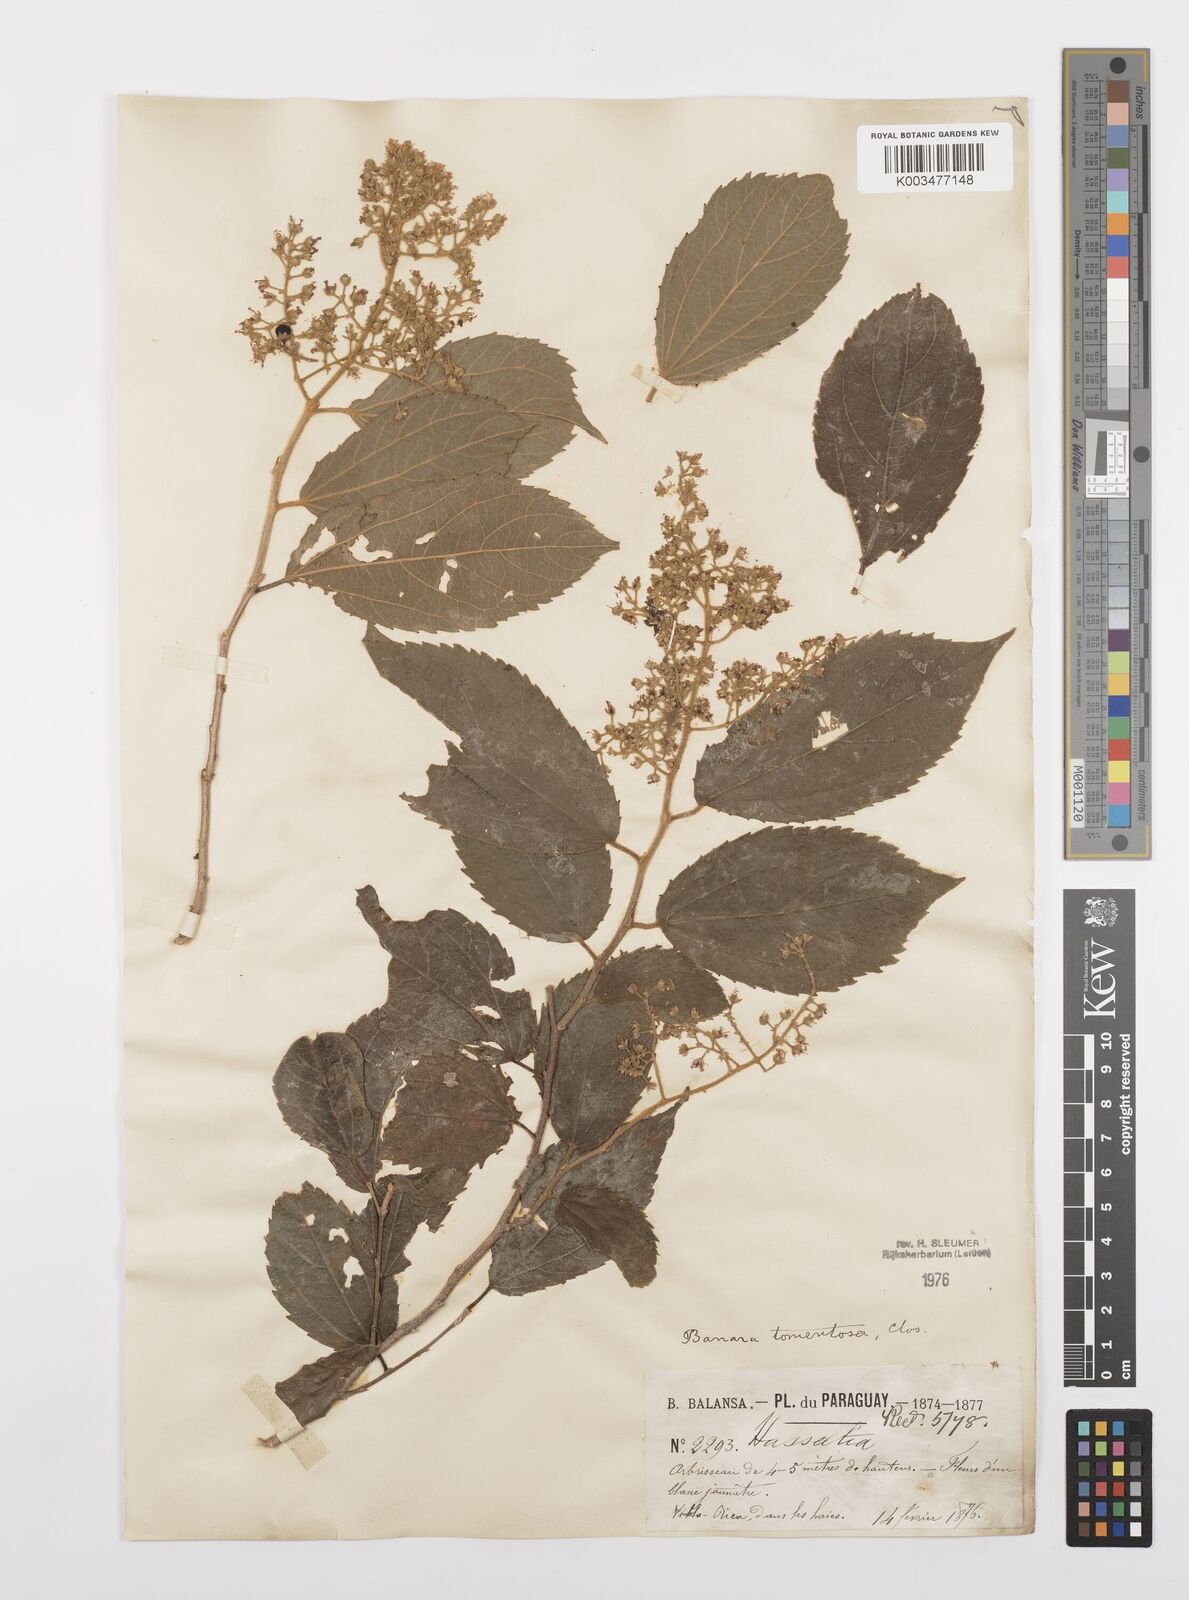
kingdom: Plantae
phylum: Tracheophyta
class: Magnoliopsida
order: Malpighiales
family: Salicaceae
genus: Banara
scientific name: Banara tomentosa
